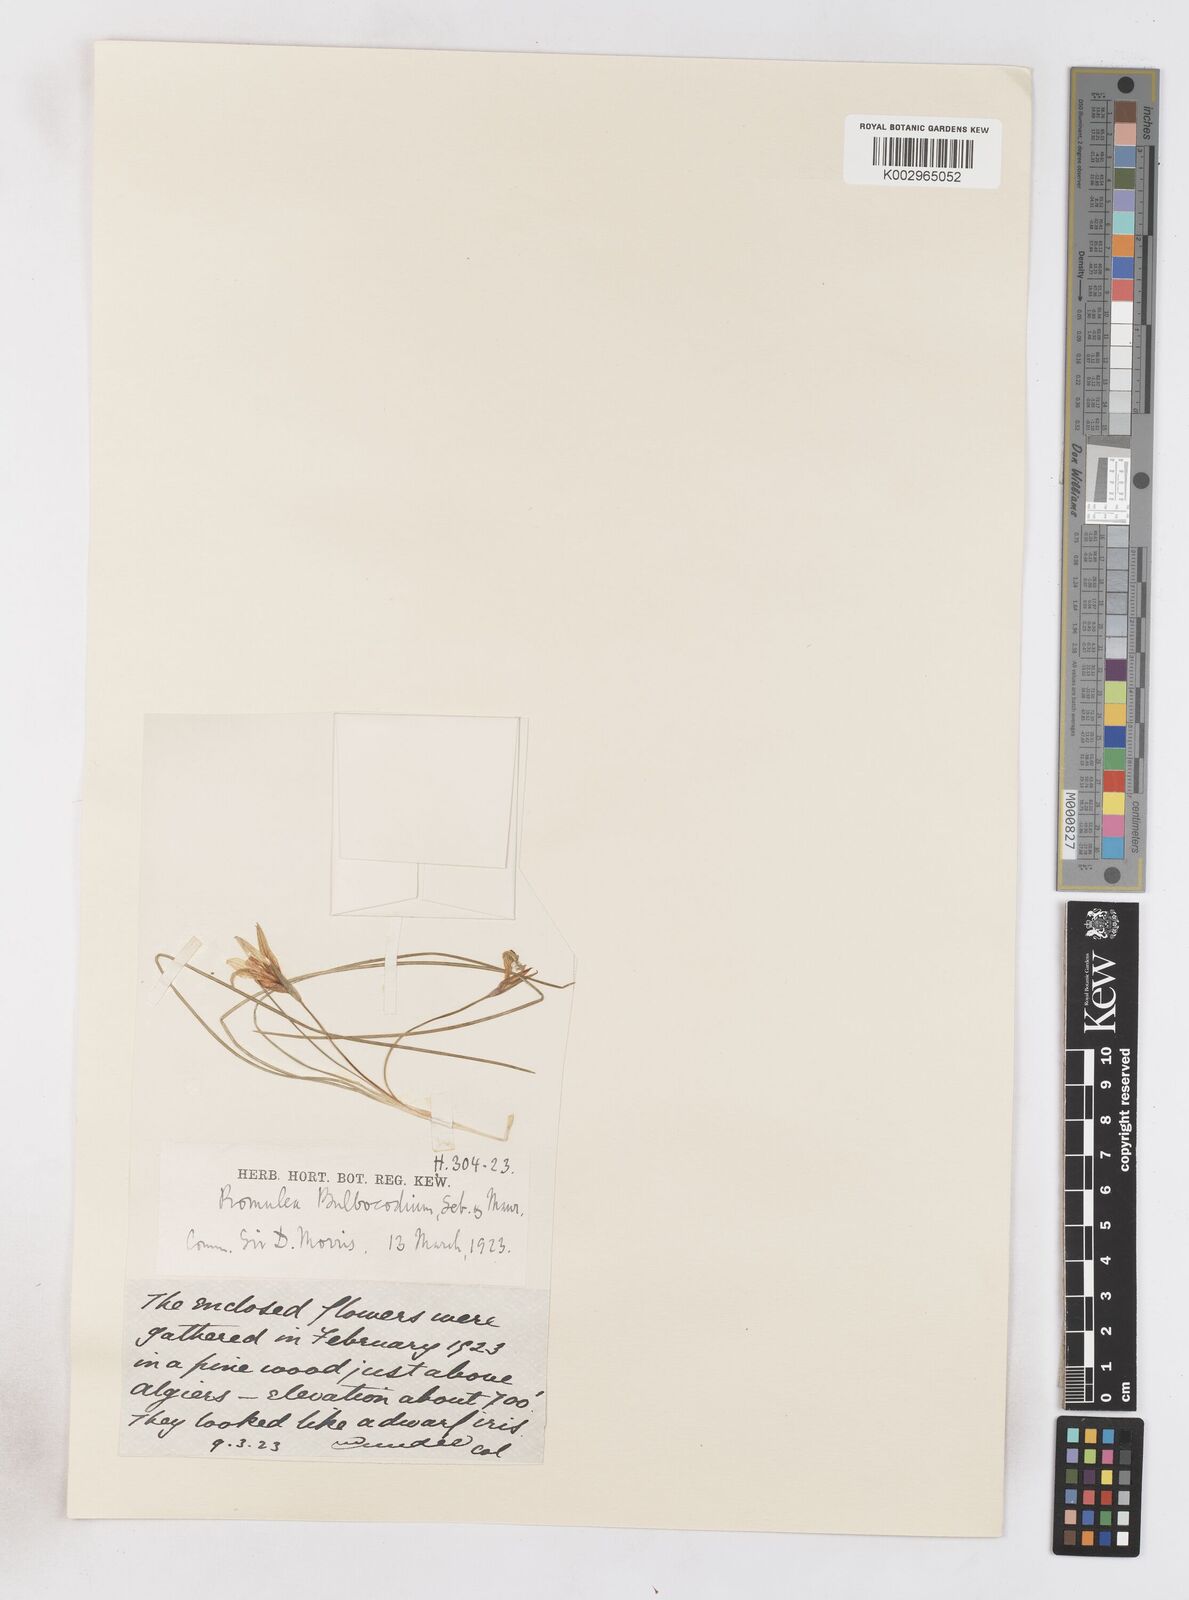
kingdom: Plantae
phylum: Tracheophyta
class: Liliopsida
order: Asparagales
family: Iridaceae
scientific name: Iridaceae
